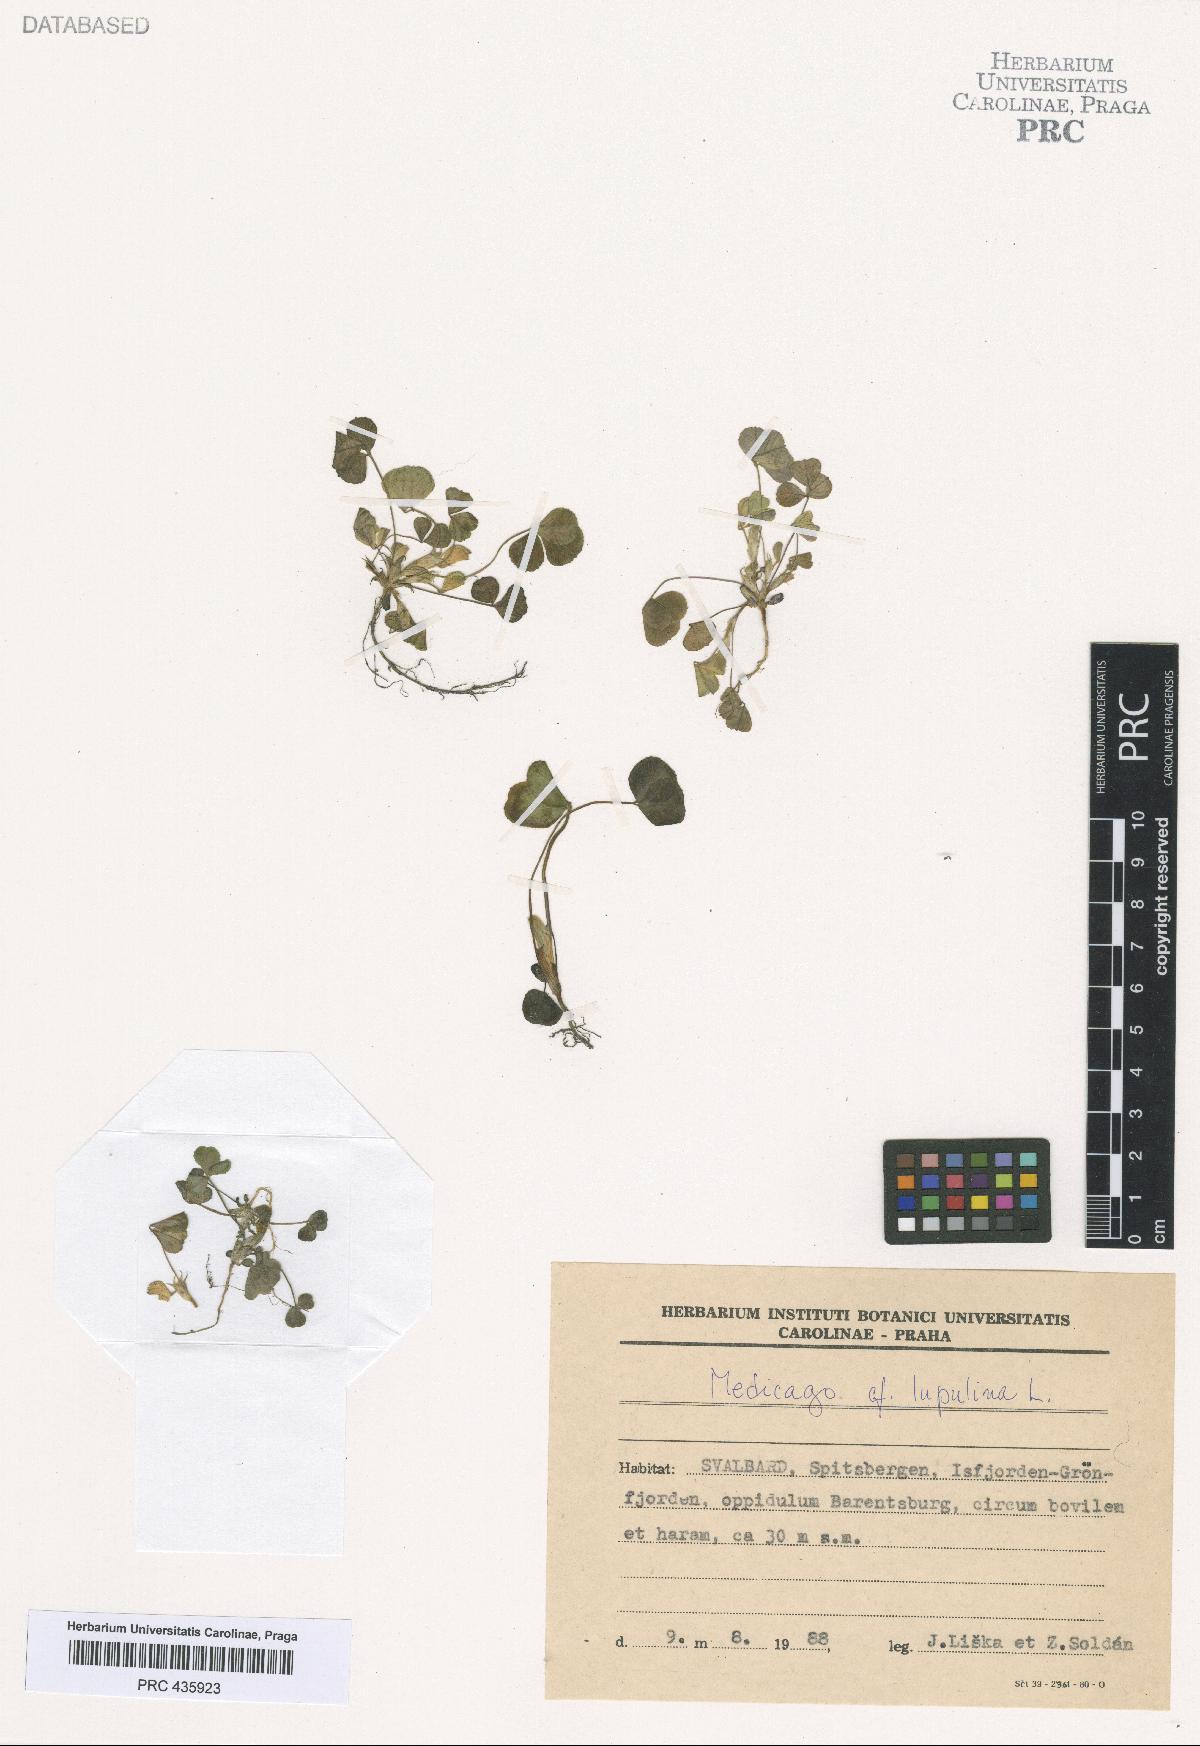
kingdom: Plantae
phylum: Tracheophyta
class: Magnoliopsida
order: Fabales
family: Fabaceae
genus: Medicago
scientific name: Medicago lupulina
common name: Black medick
